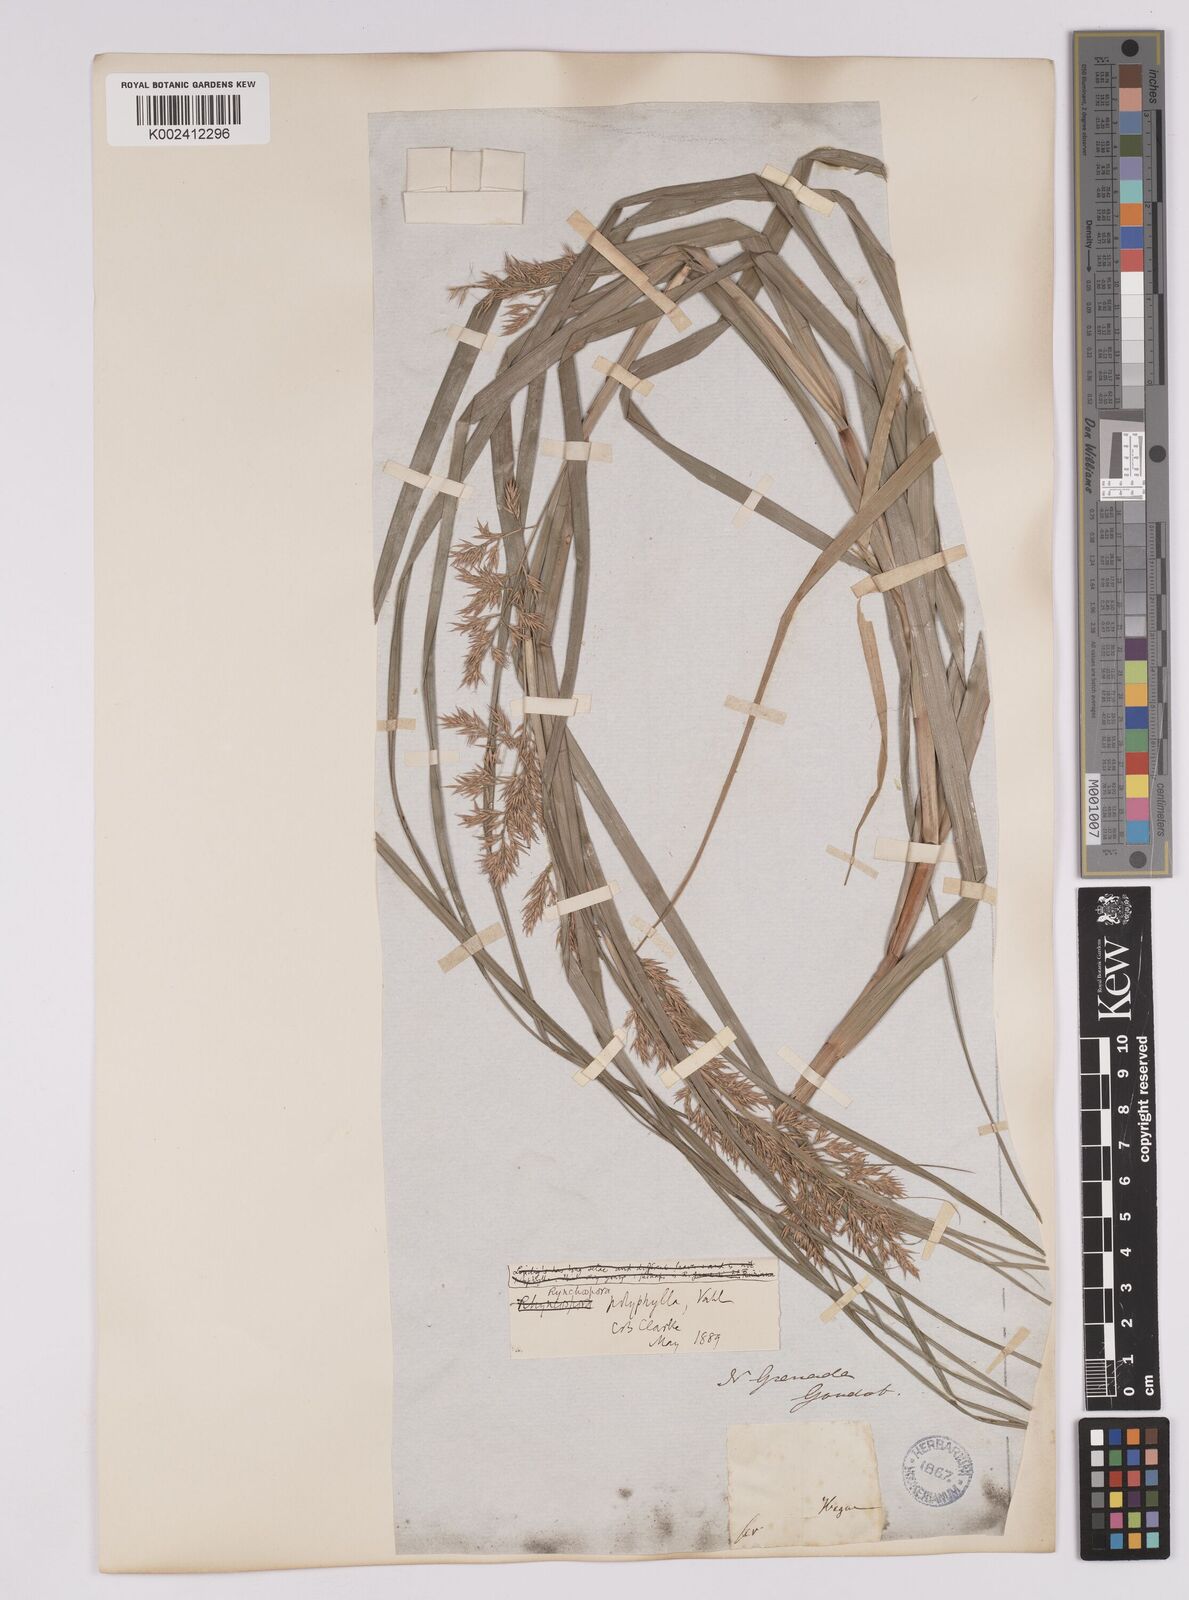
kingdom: Plantae
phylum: Tracheophyta
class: Liliopsida
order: Poales
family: Cyperaceae
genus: Rhynchospora
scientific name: Rhynchospora polyphylla
